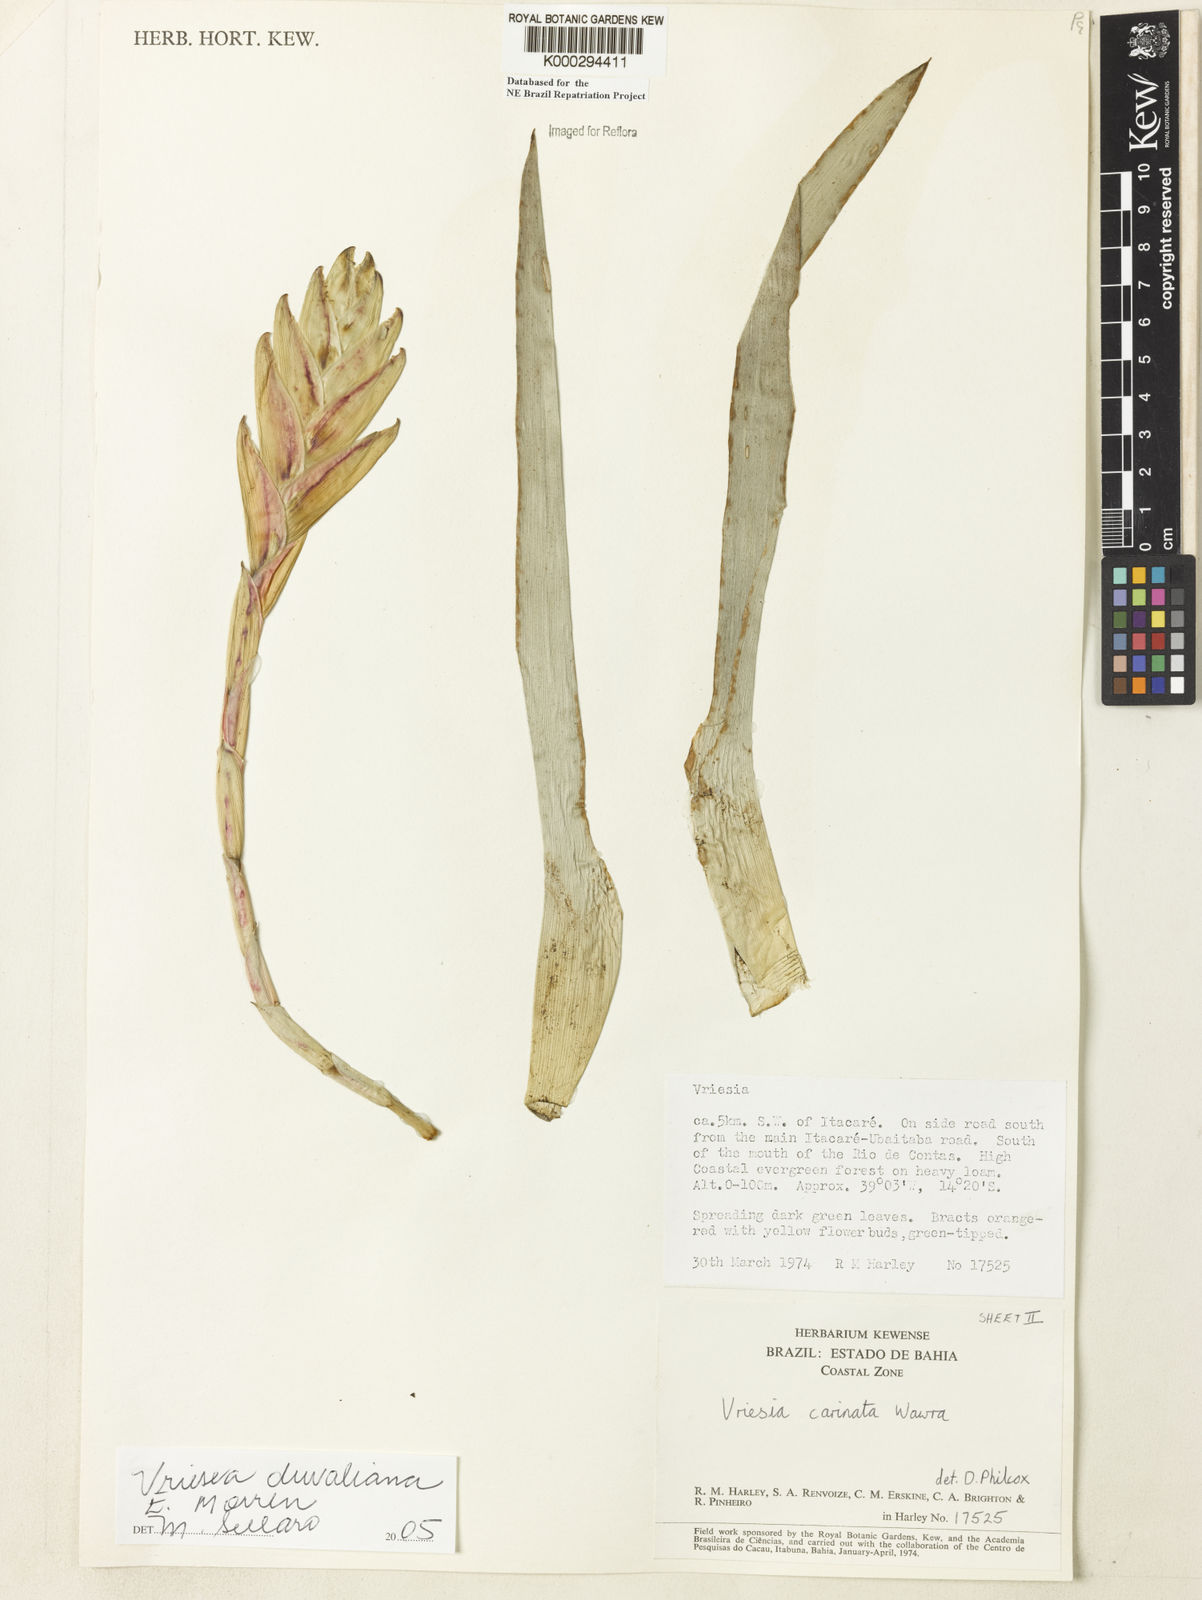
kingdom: Plantae
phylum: Tracheophyta
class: Liliopsida
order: Poales
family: Bromeliaceae
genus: Vriesea
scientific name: Vriesea duvaliana
